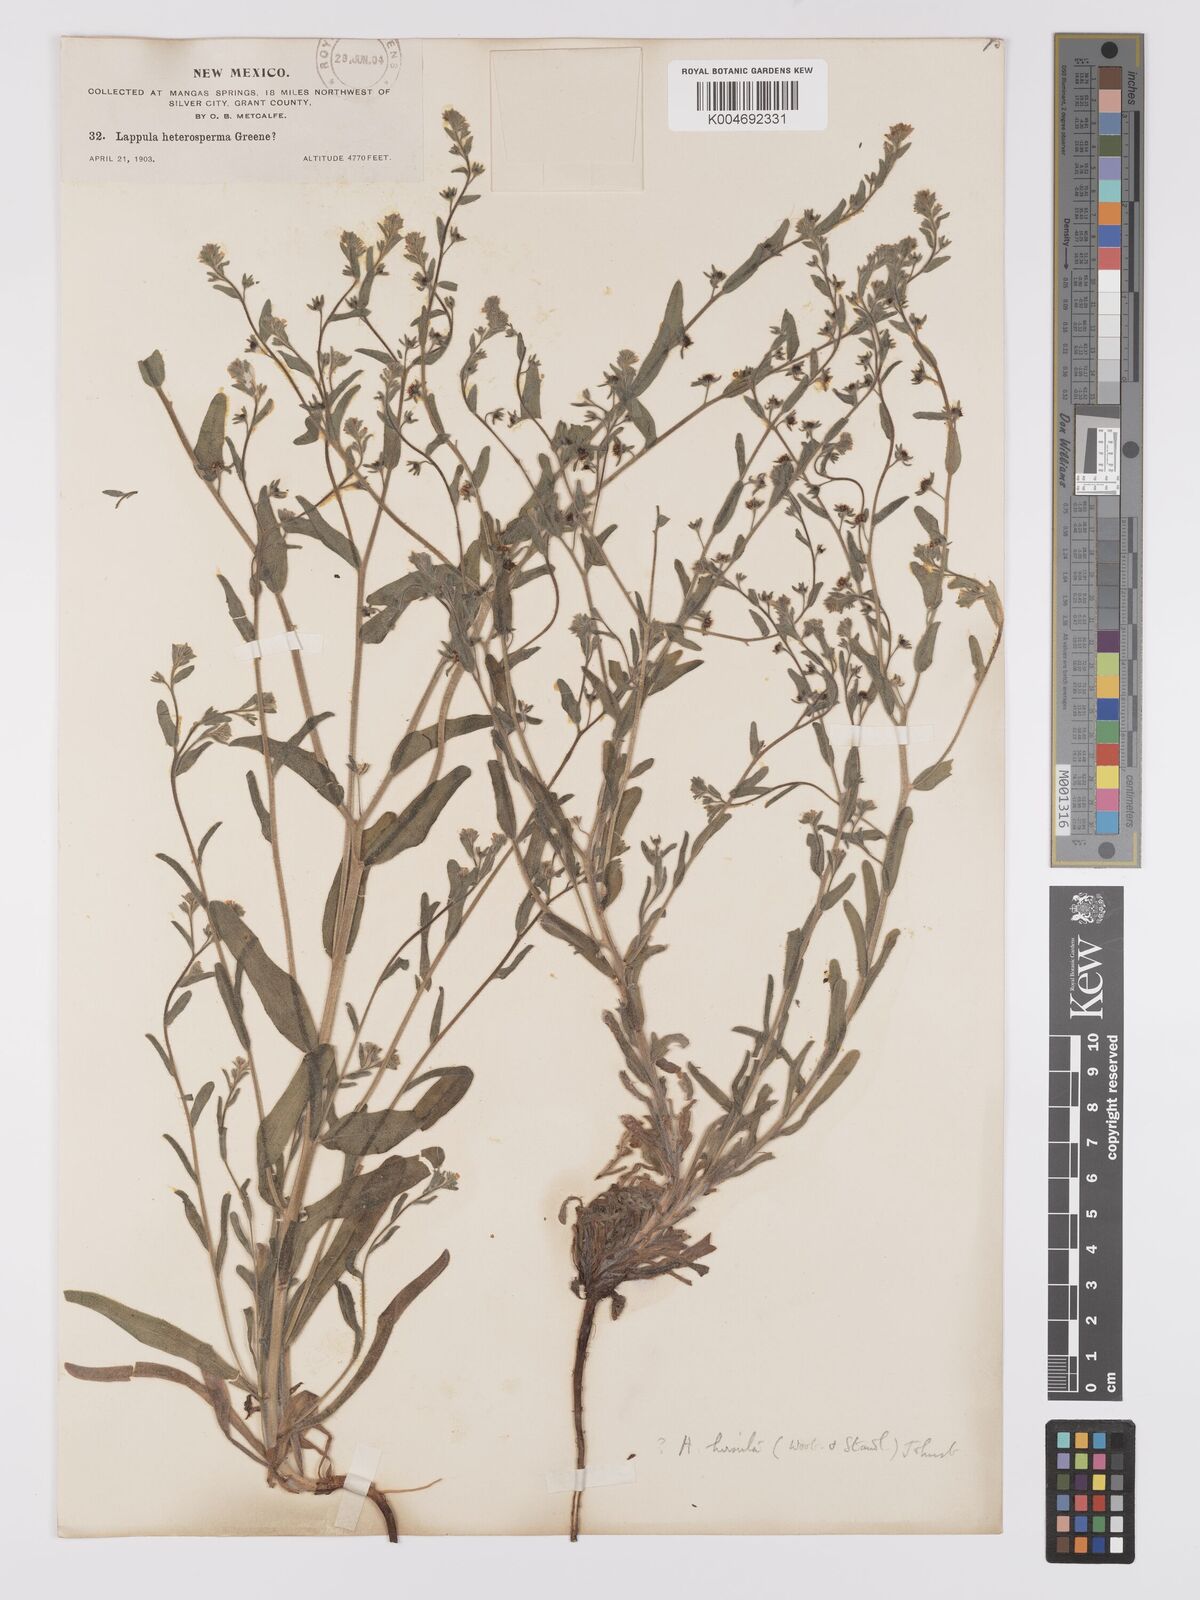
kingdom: Plantae
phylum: Tracheophyta
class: Magnoliopsida
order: Boraginales
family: Boraginaceae
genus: Hackelia
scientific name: Hackelia hirsuta
